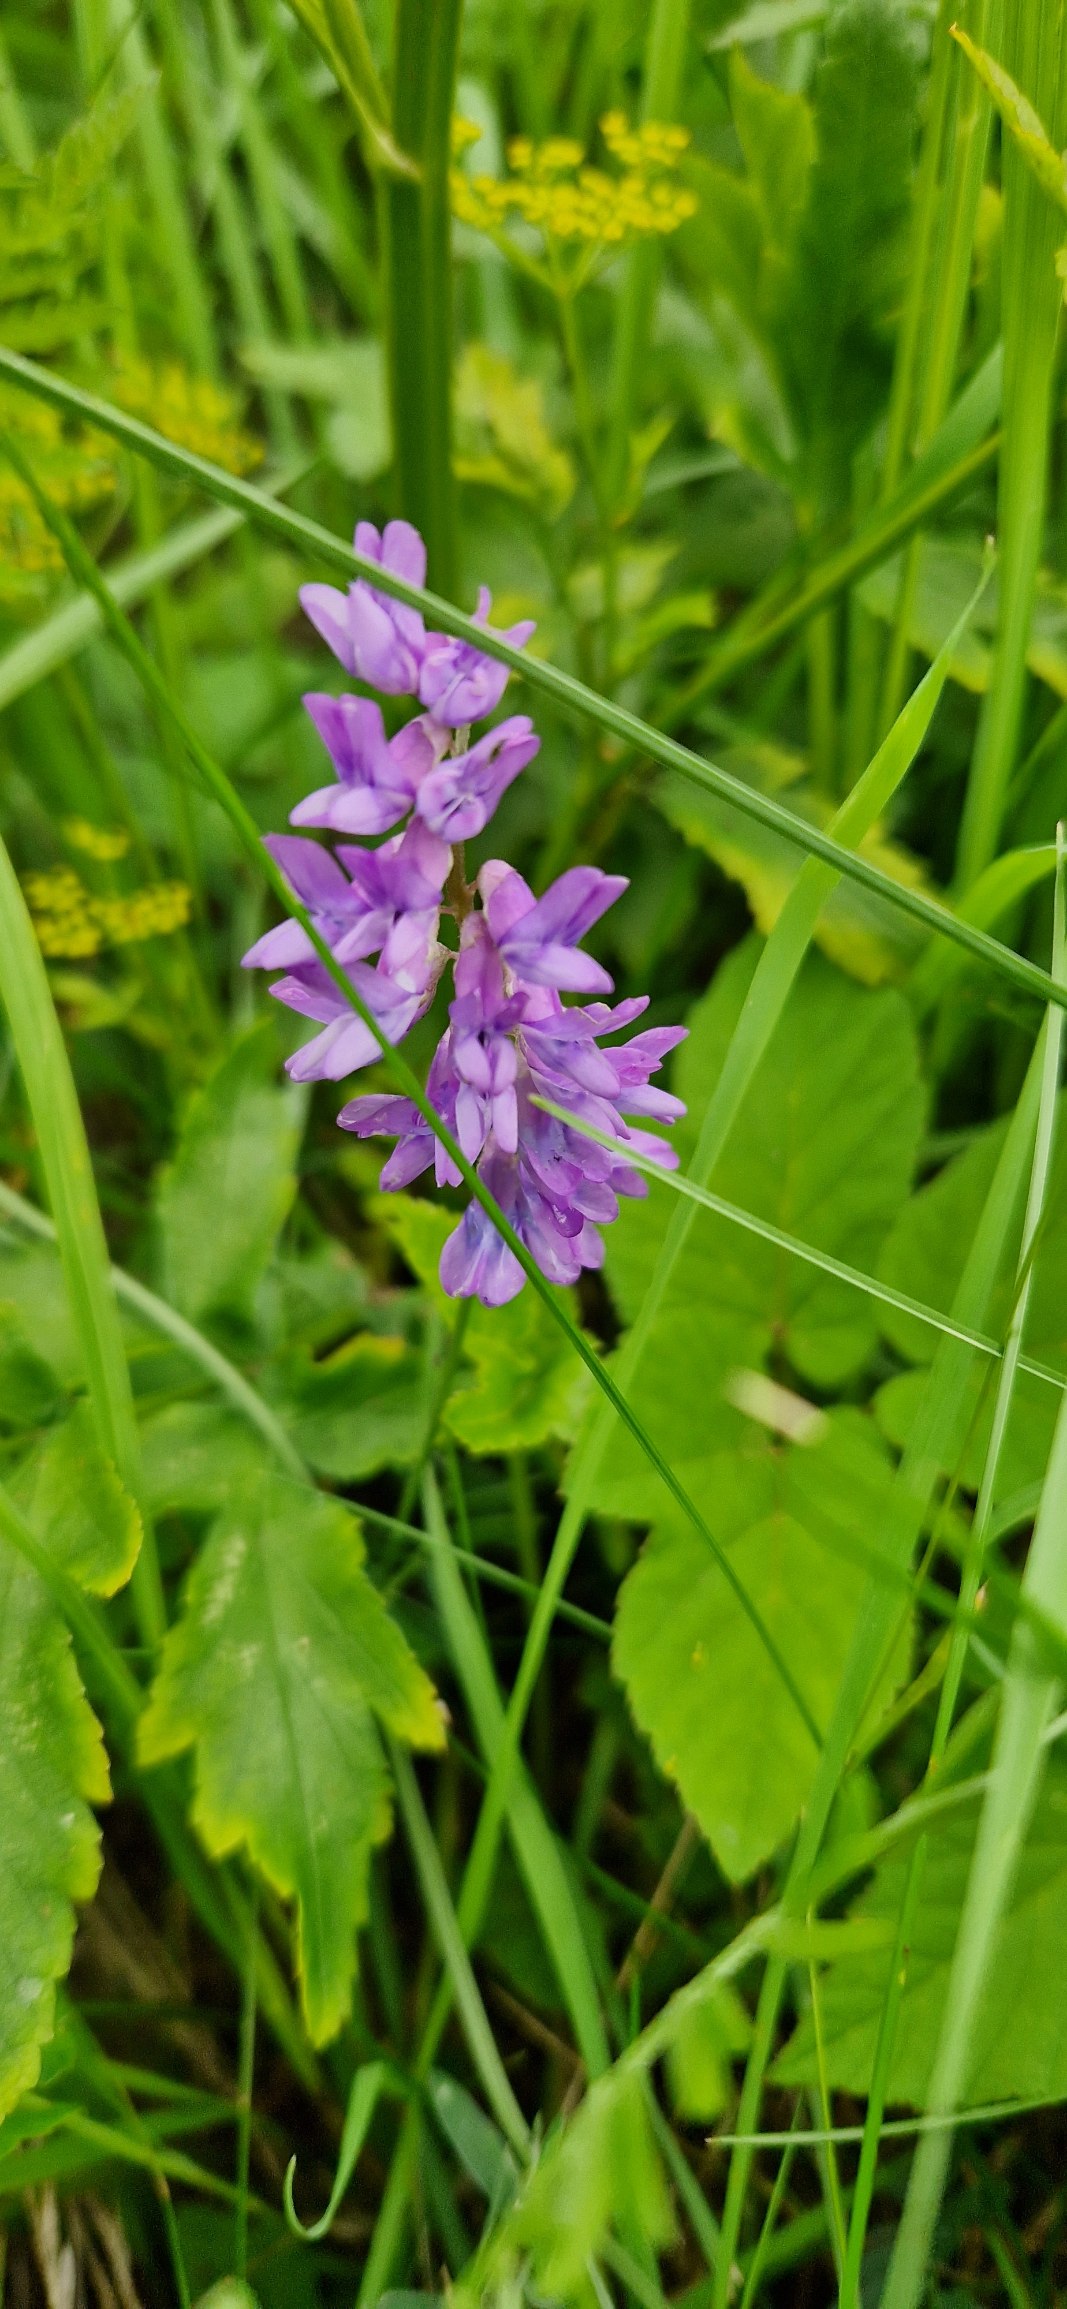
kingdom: Plantae
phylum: Tracheophyta
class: Magnoliopsida
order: Fabales
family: Fabaceae
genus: Vicia
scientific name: Vicia cracca
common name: Muse-vikke
